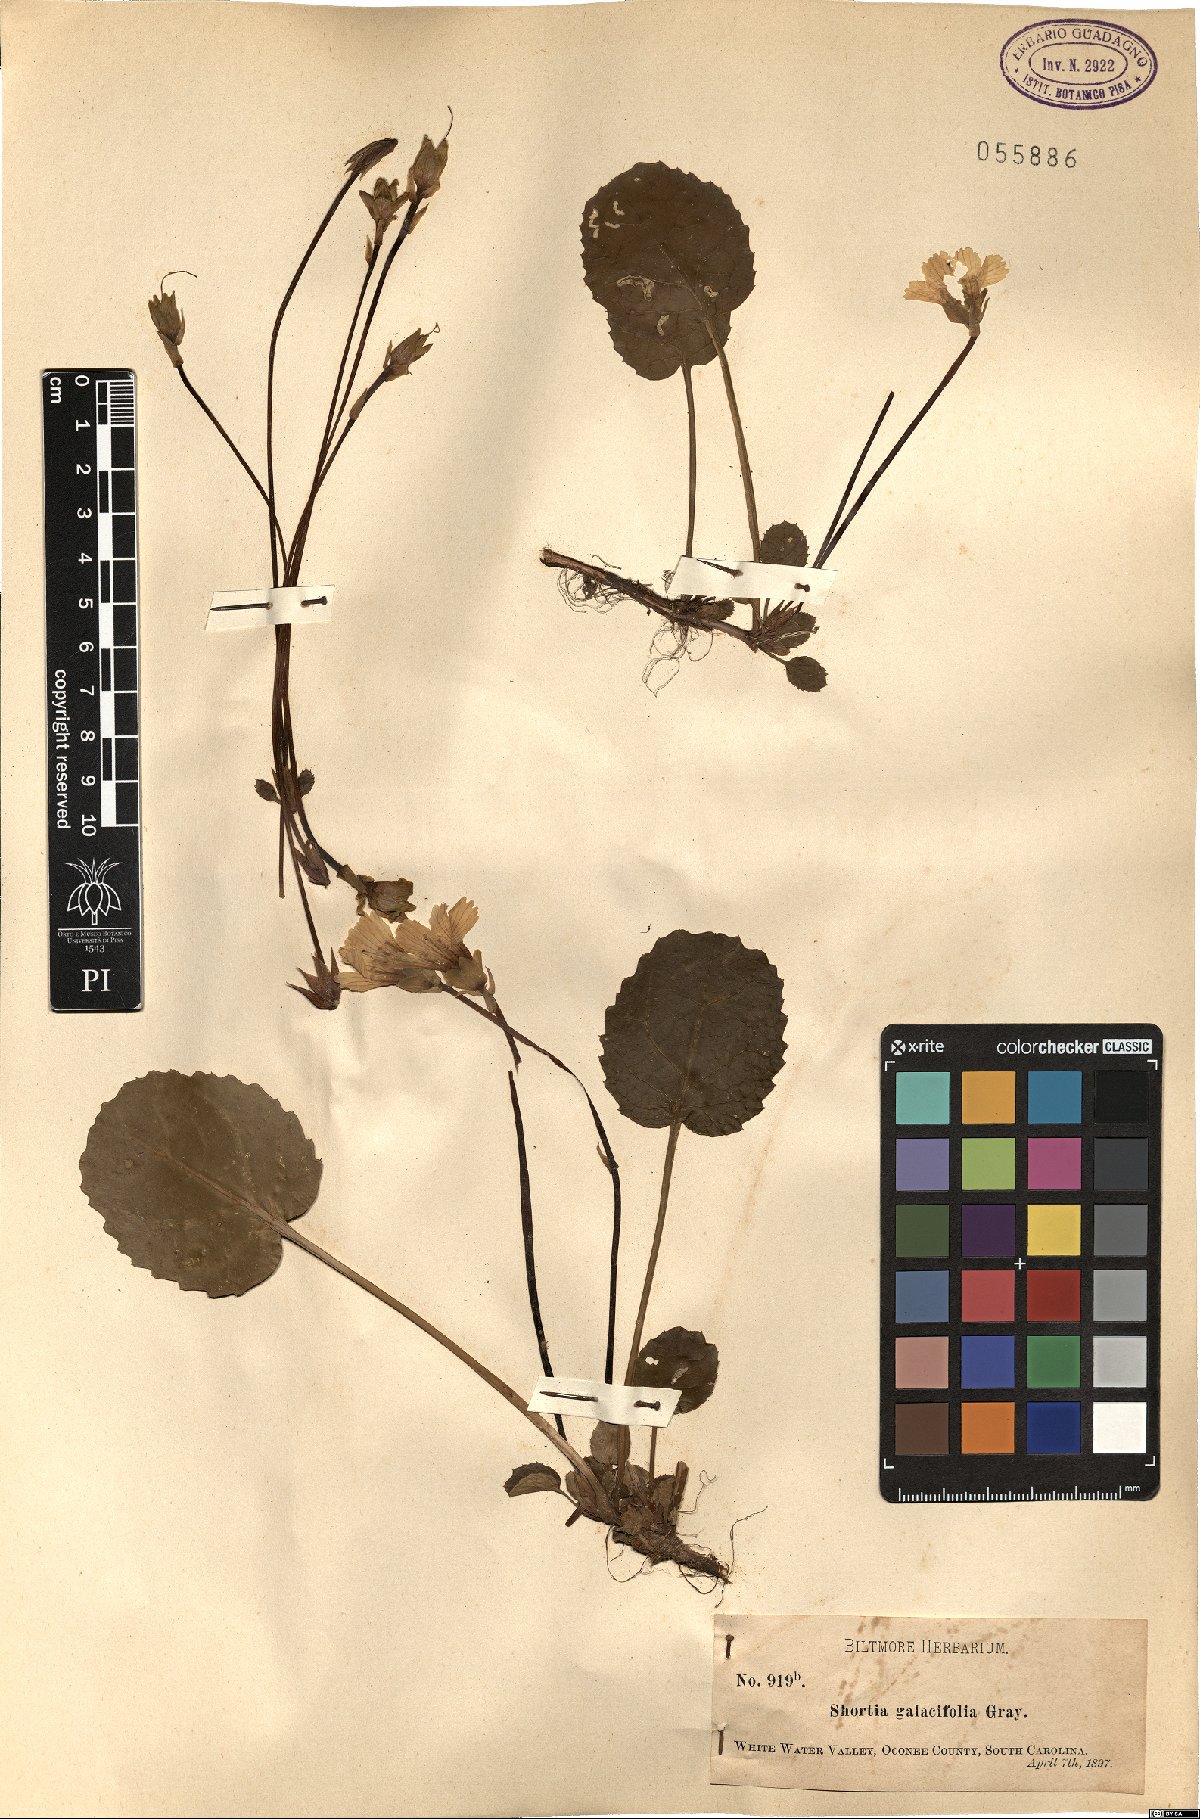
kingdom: Plantae
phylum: Tracheophyta
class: Magnoliopsida
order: Ericales
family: Diapensiaceae
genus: Shortia
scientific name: Shortia galacifolia
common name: Shortia
